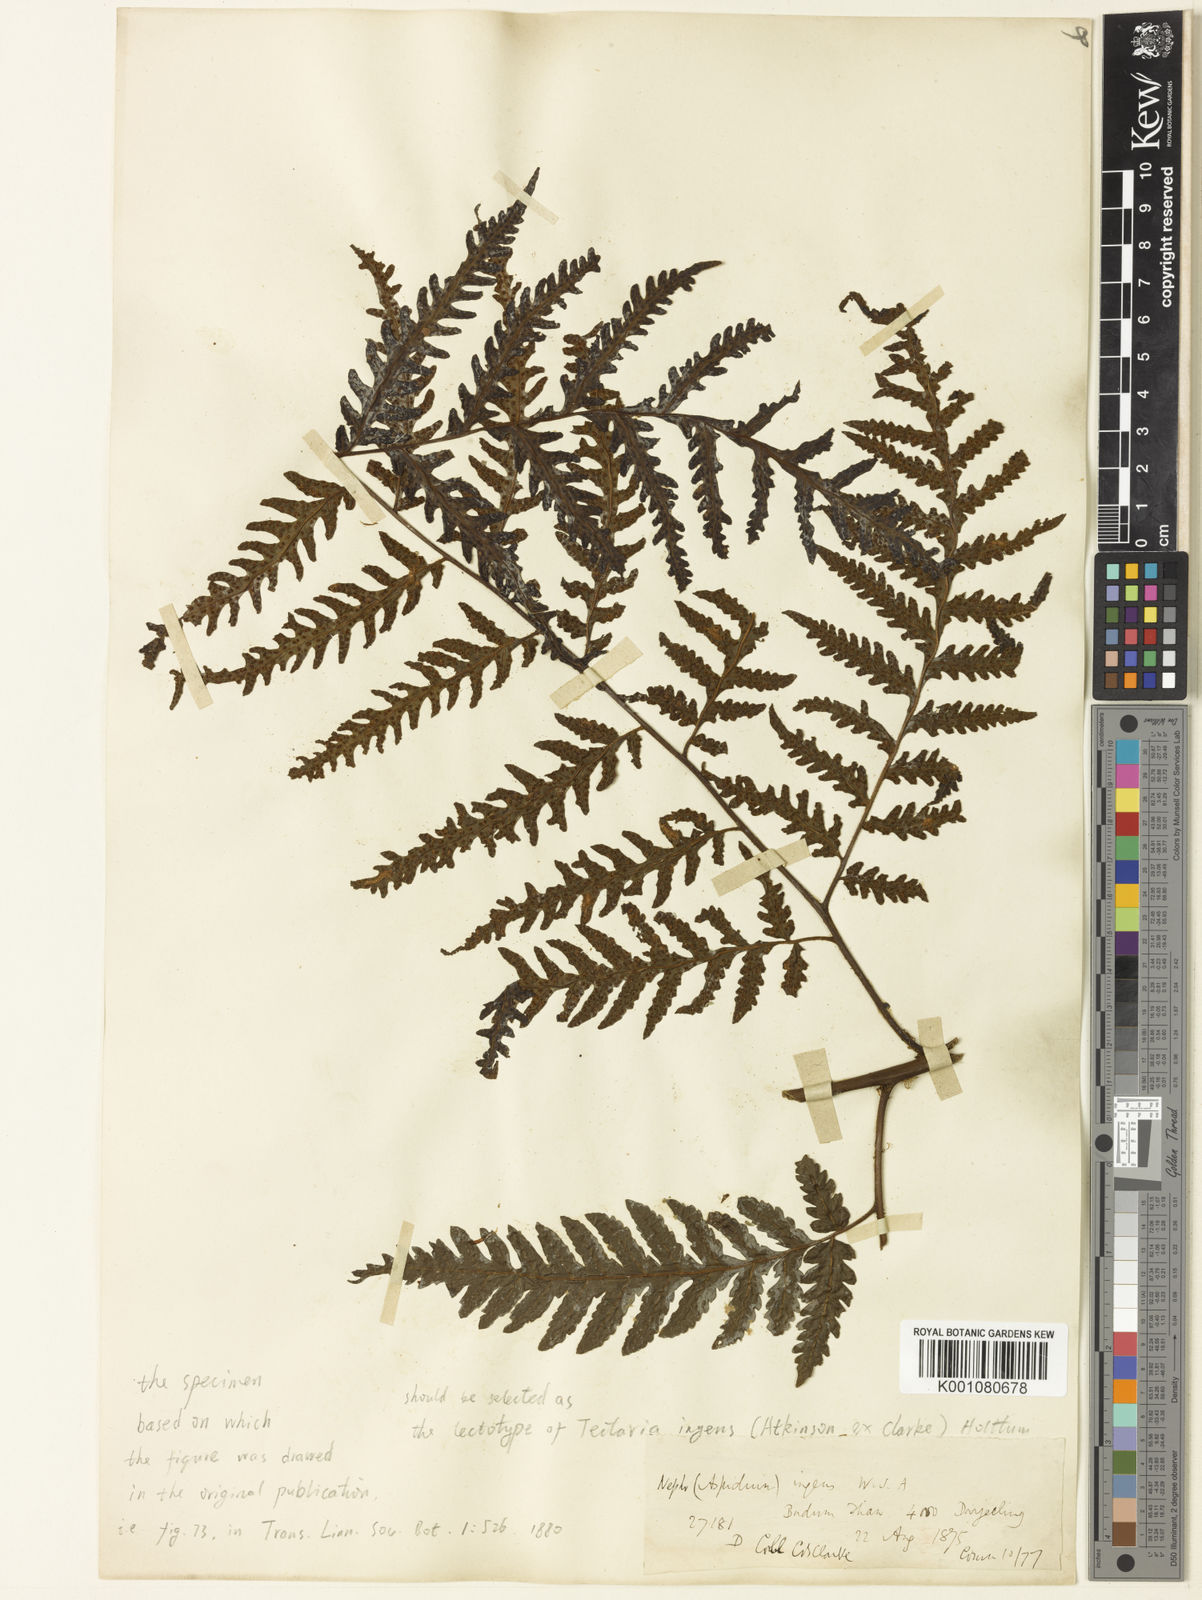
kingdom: Plantae
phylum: Tracheophyta
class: Polypodiopsida
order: Polypodiales
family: Tectariaceae
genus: Tectaria
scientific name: Tectaria ingens
